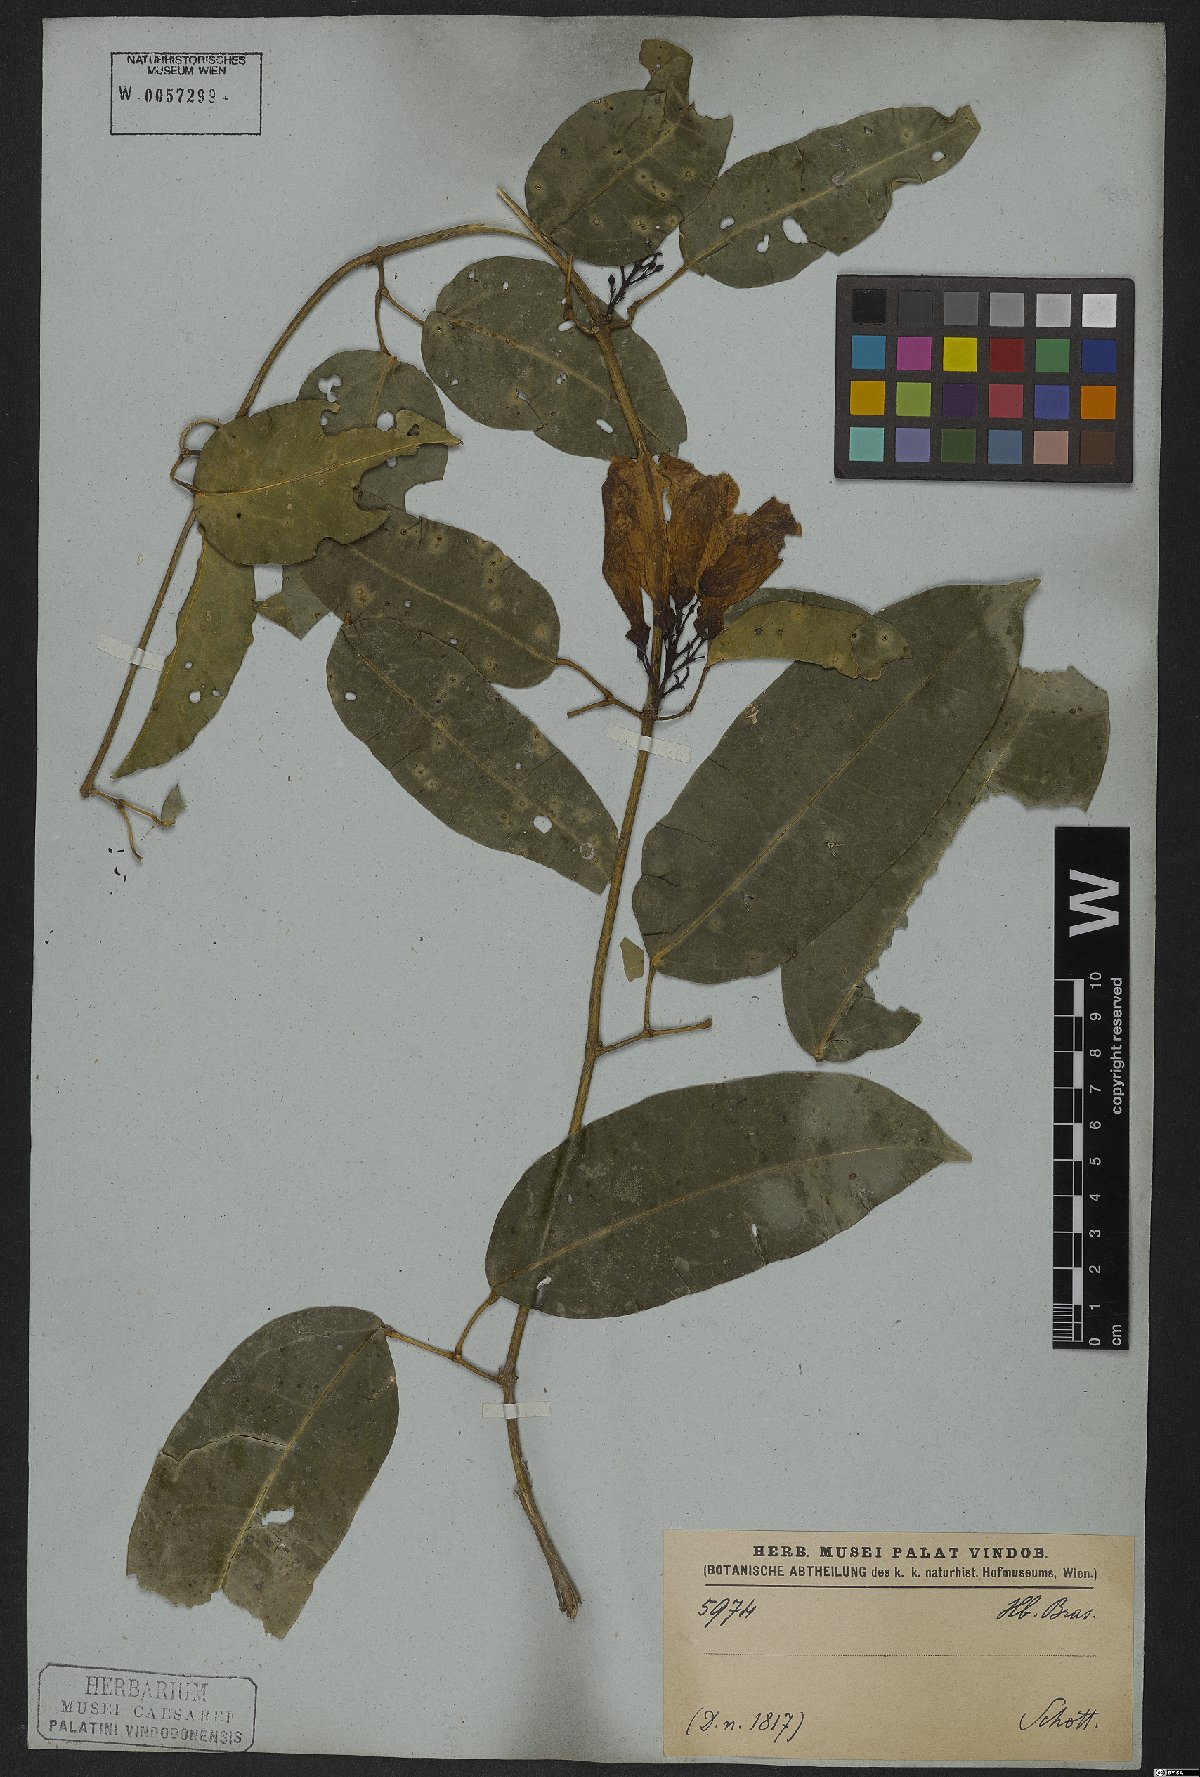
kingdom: Plantae
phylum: Tracheophyta
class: Magnoliopsida
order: Lamiales
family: Bignoniaceae
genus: Bignonia
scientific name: Bignonia sciruipabula
